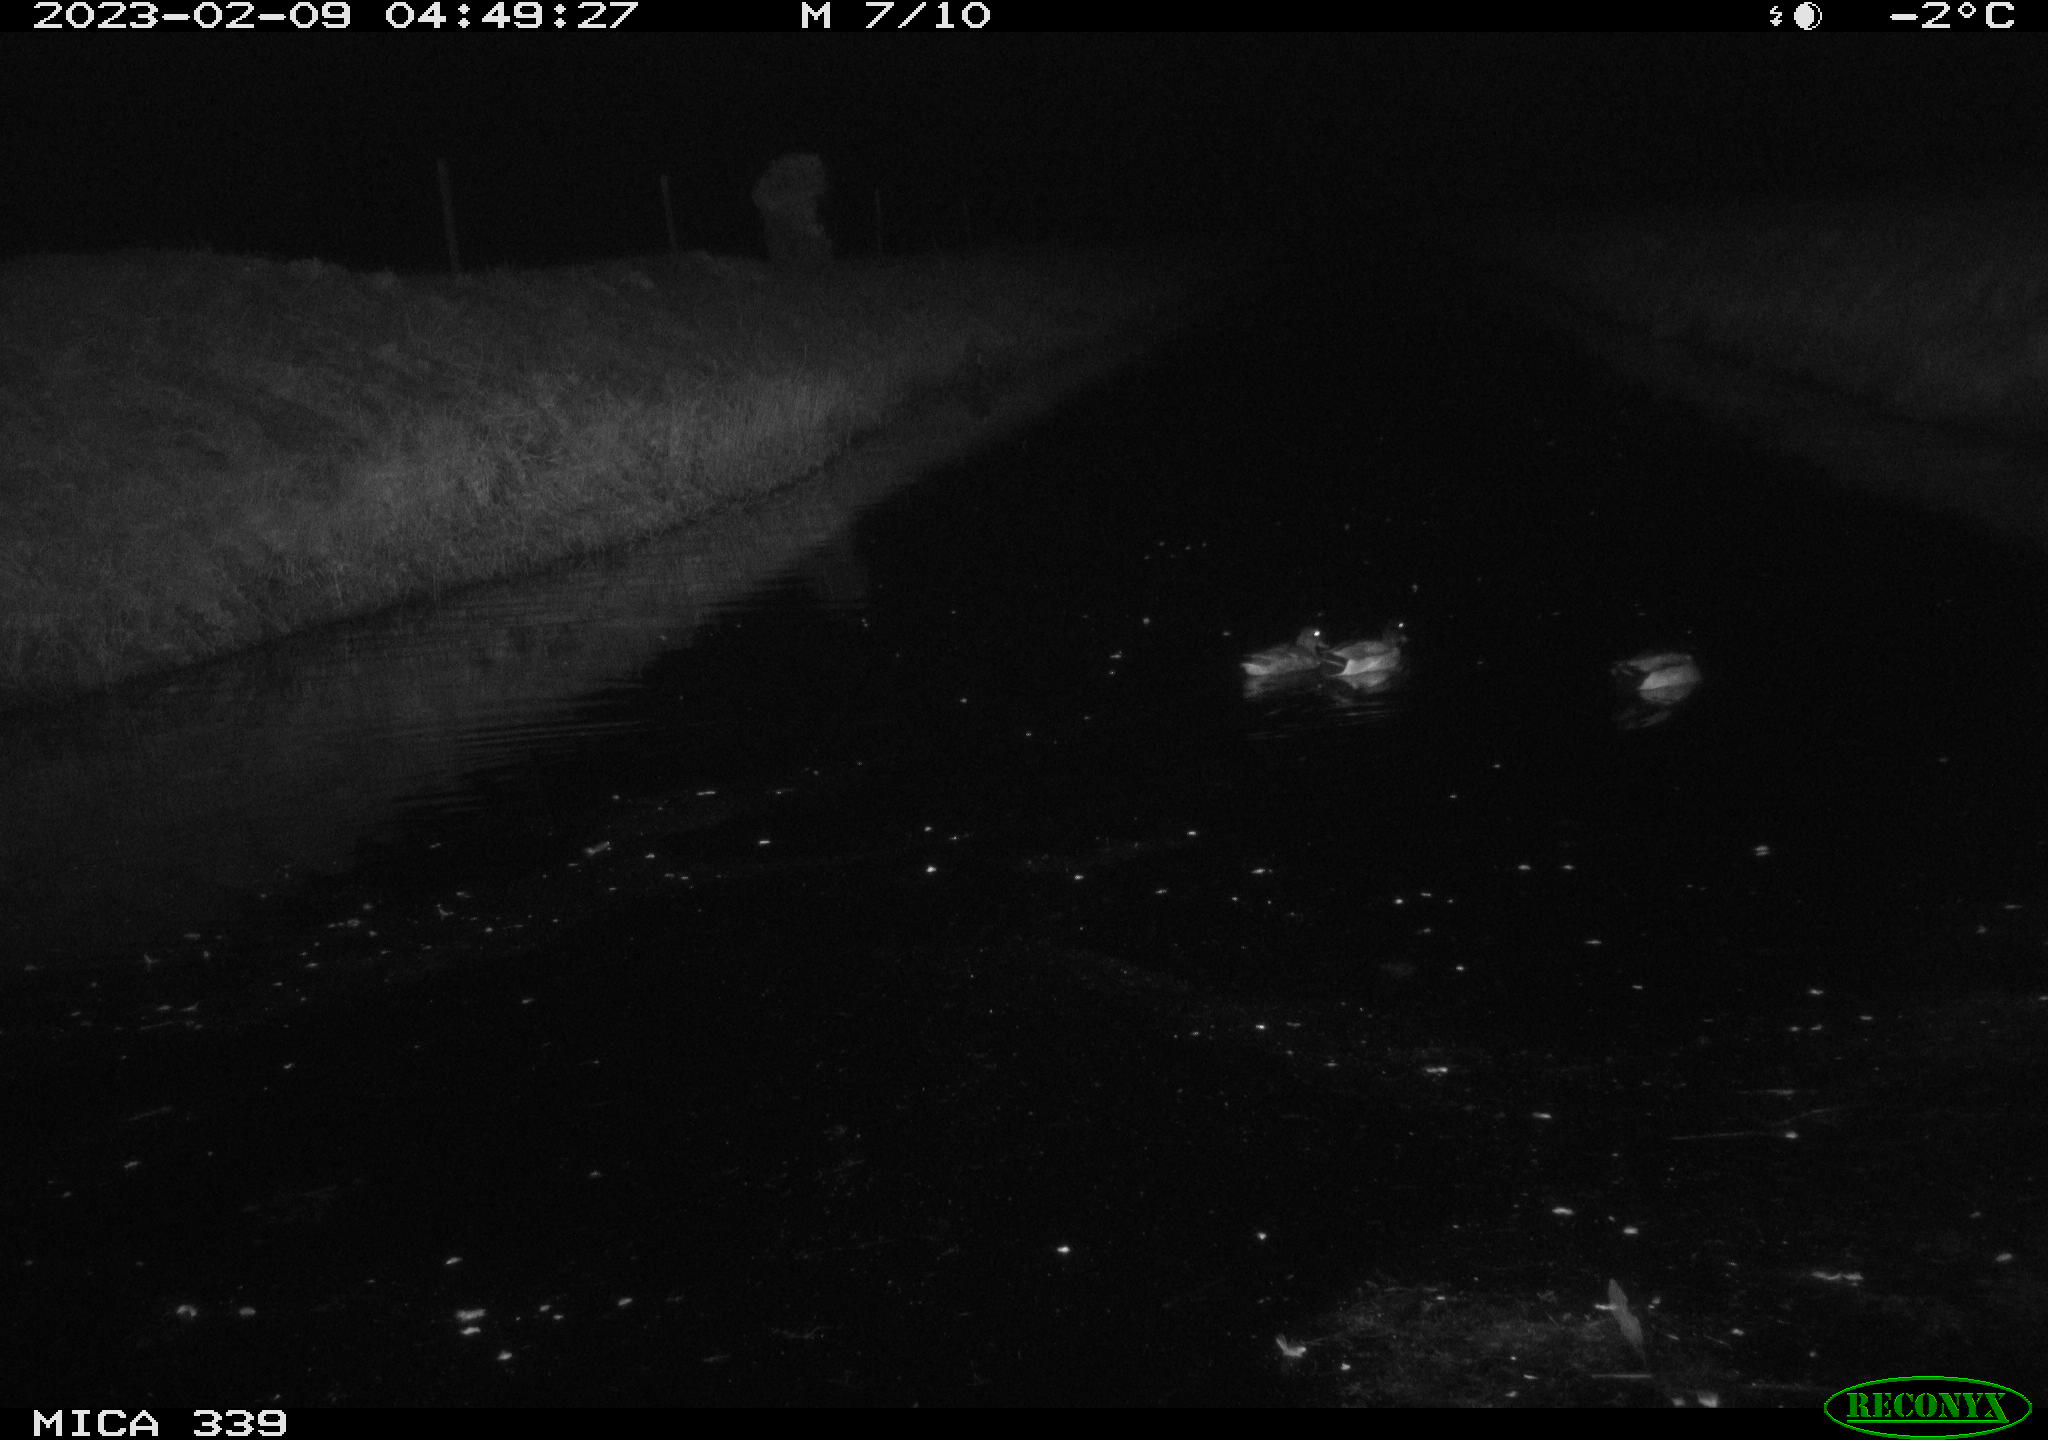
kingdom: Animalia
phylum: Chordata
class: Aves
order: Anseriformes
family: Anatidae
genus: Anas
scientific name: Anas
